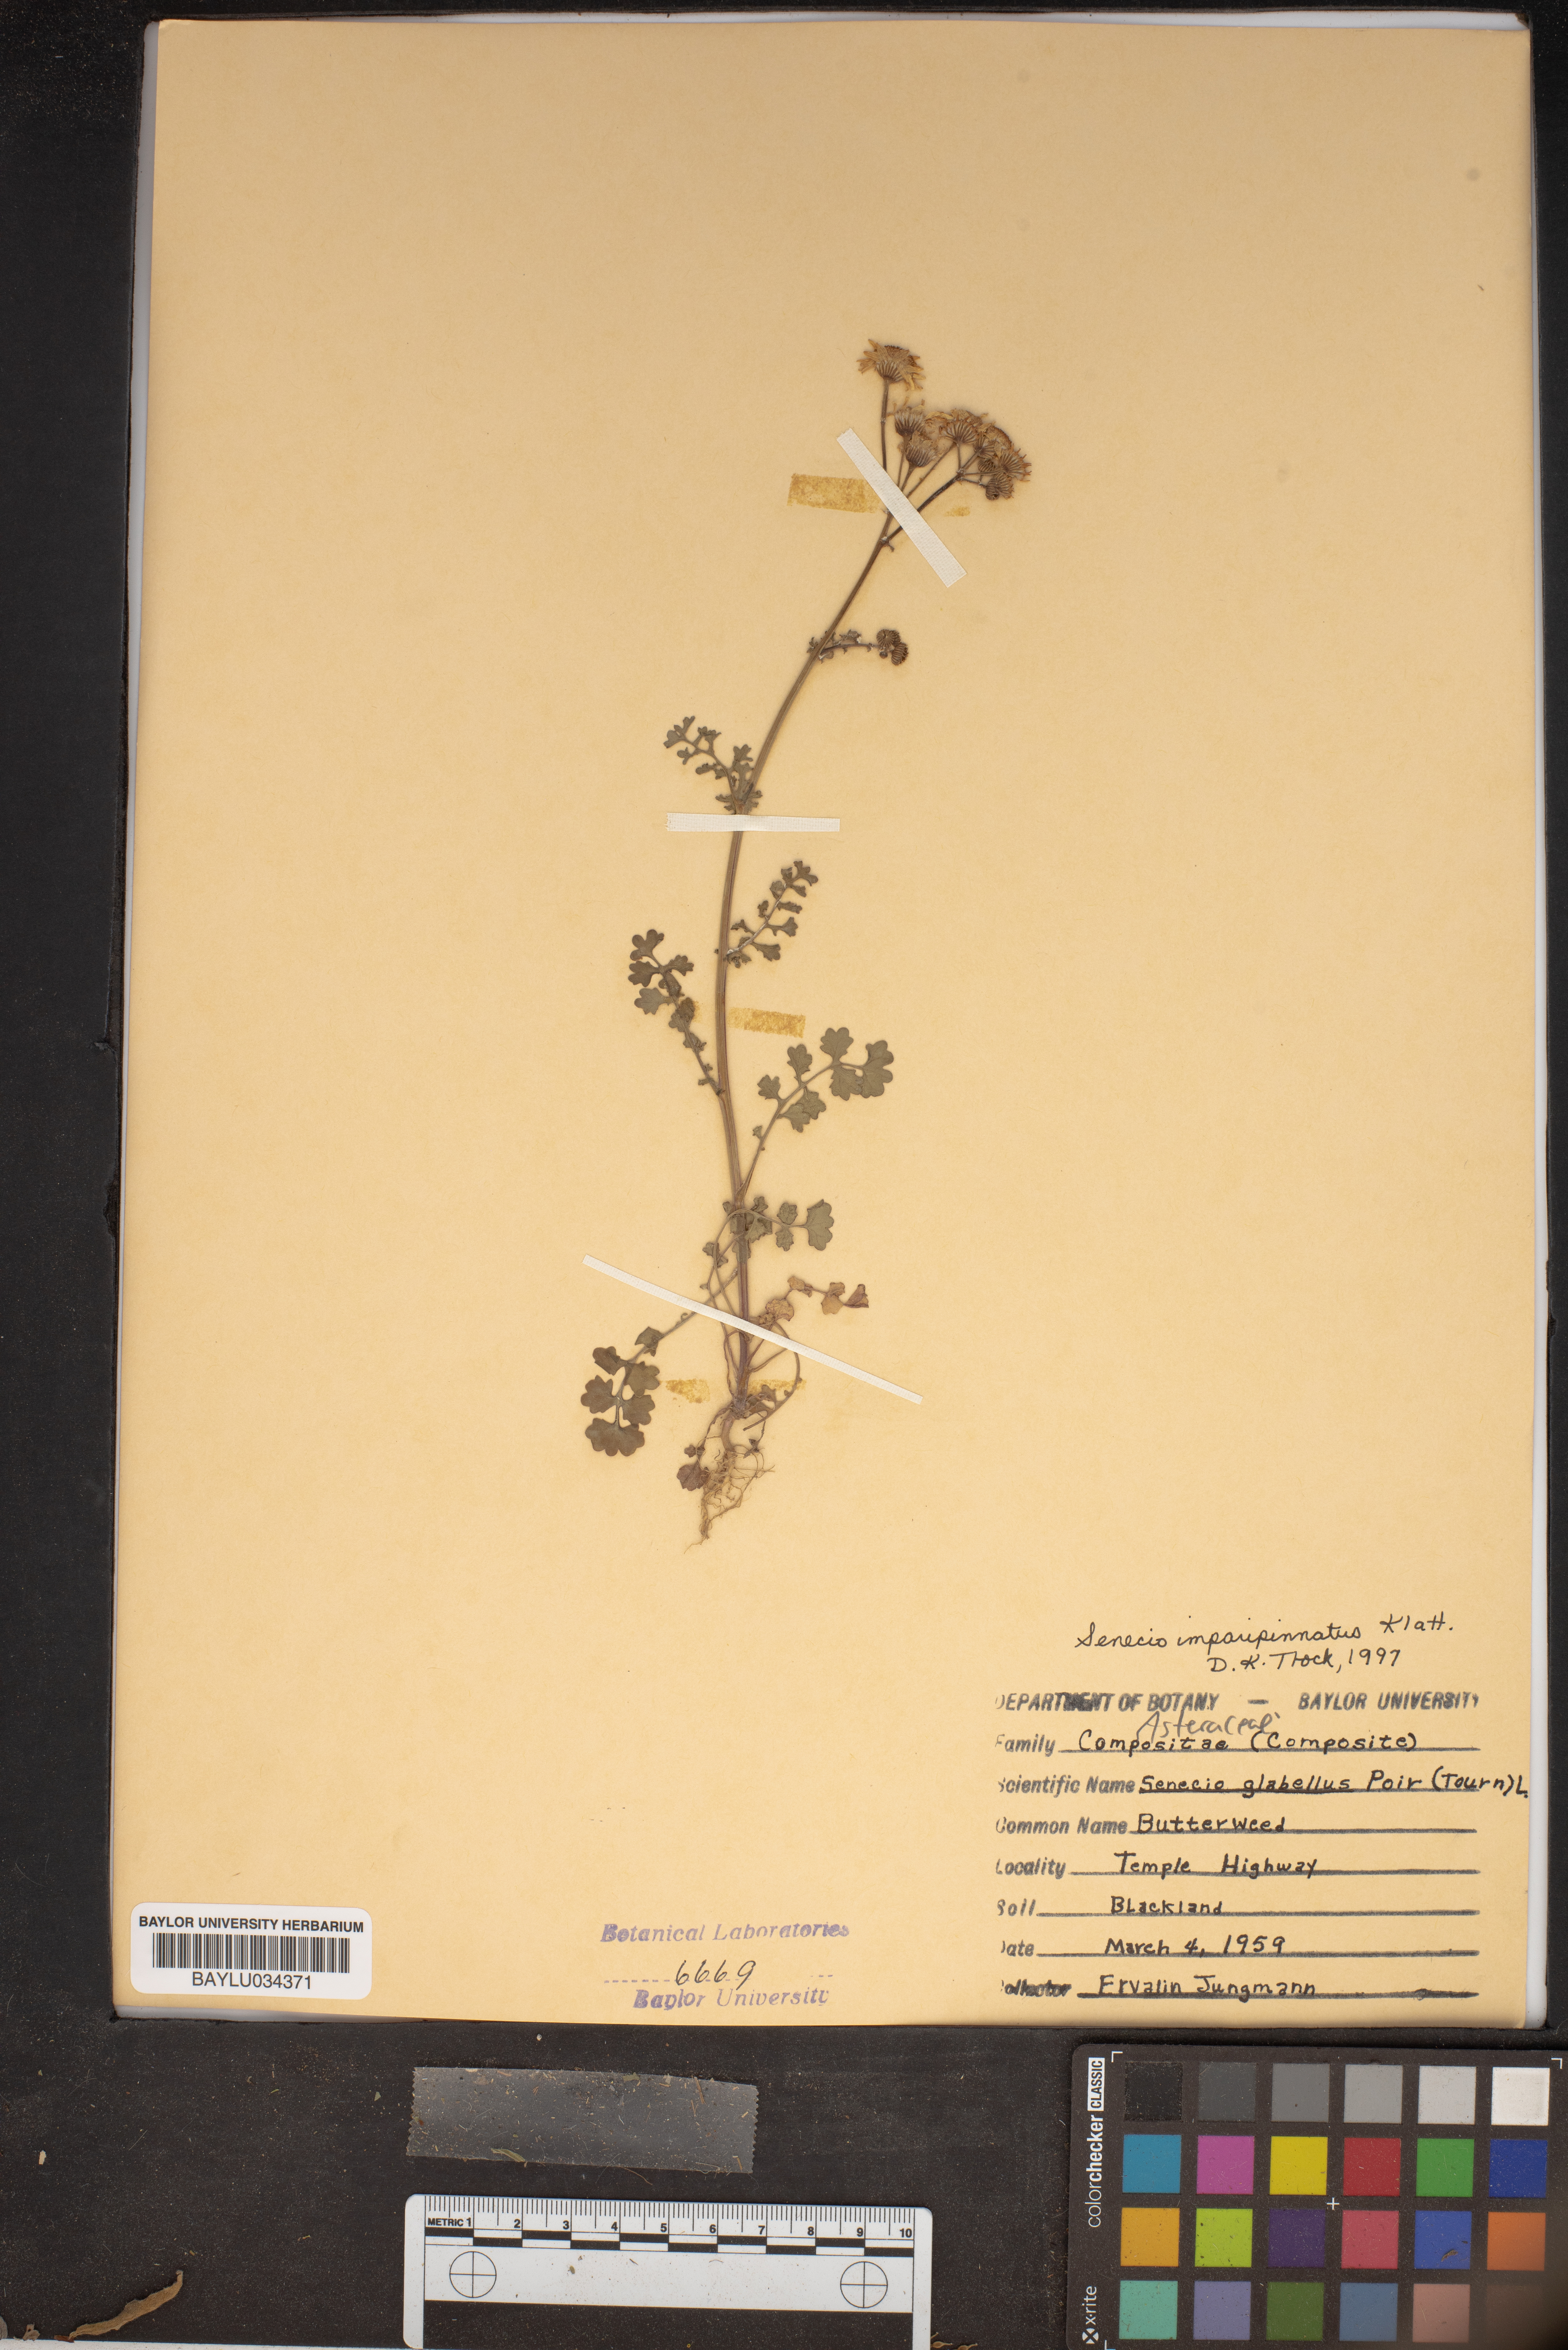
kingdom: Plantae
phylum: Tracheophyta
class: Magnoliopsida
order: Asterales
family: Asteraceae
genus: Packera
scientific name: Packera tampicana
